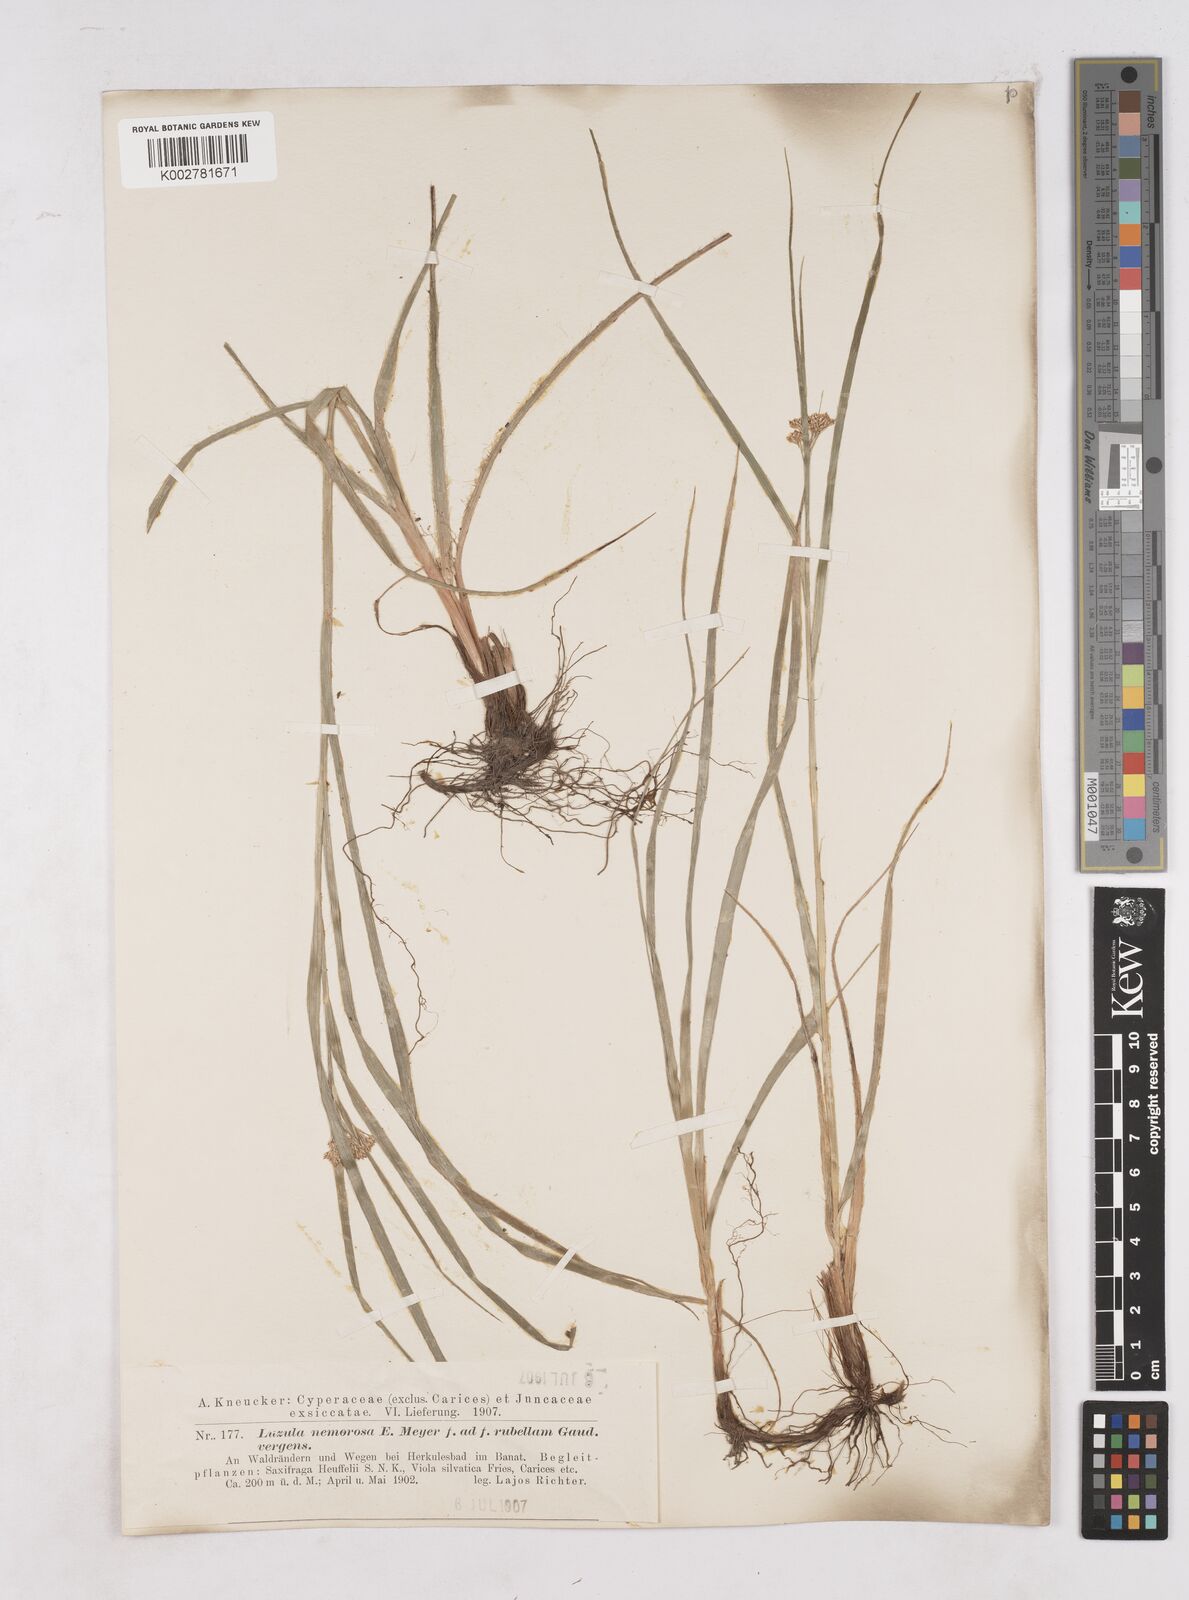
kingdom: Plantae
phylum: Tracheophyta
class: Liliopsida
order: Poales
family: Juncaceae
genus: Luzula
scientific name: Luzula luzuloides
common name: White wood-rush
